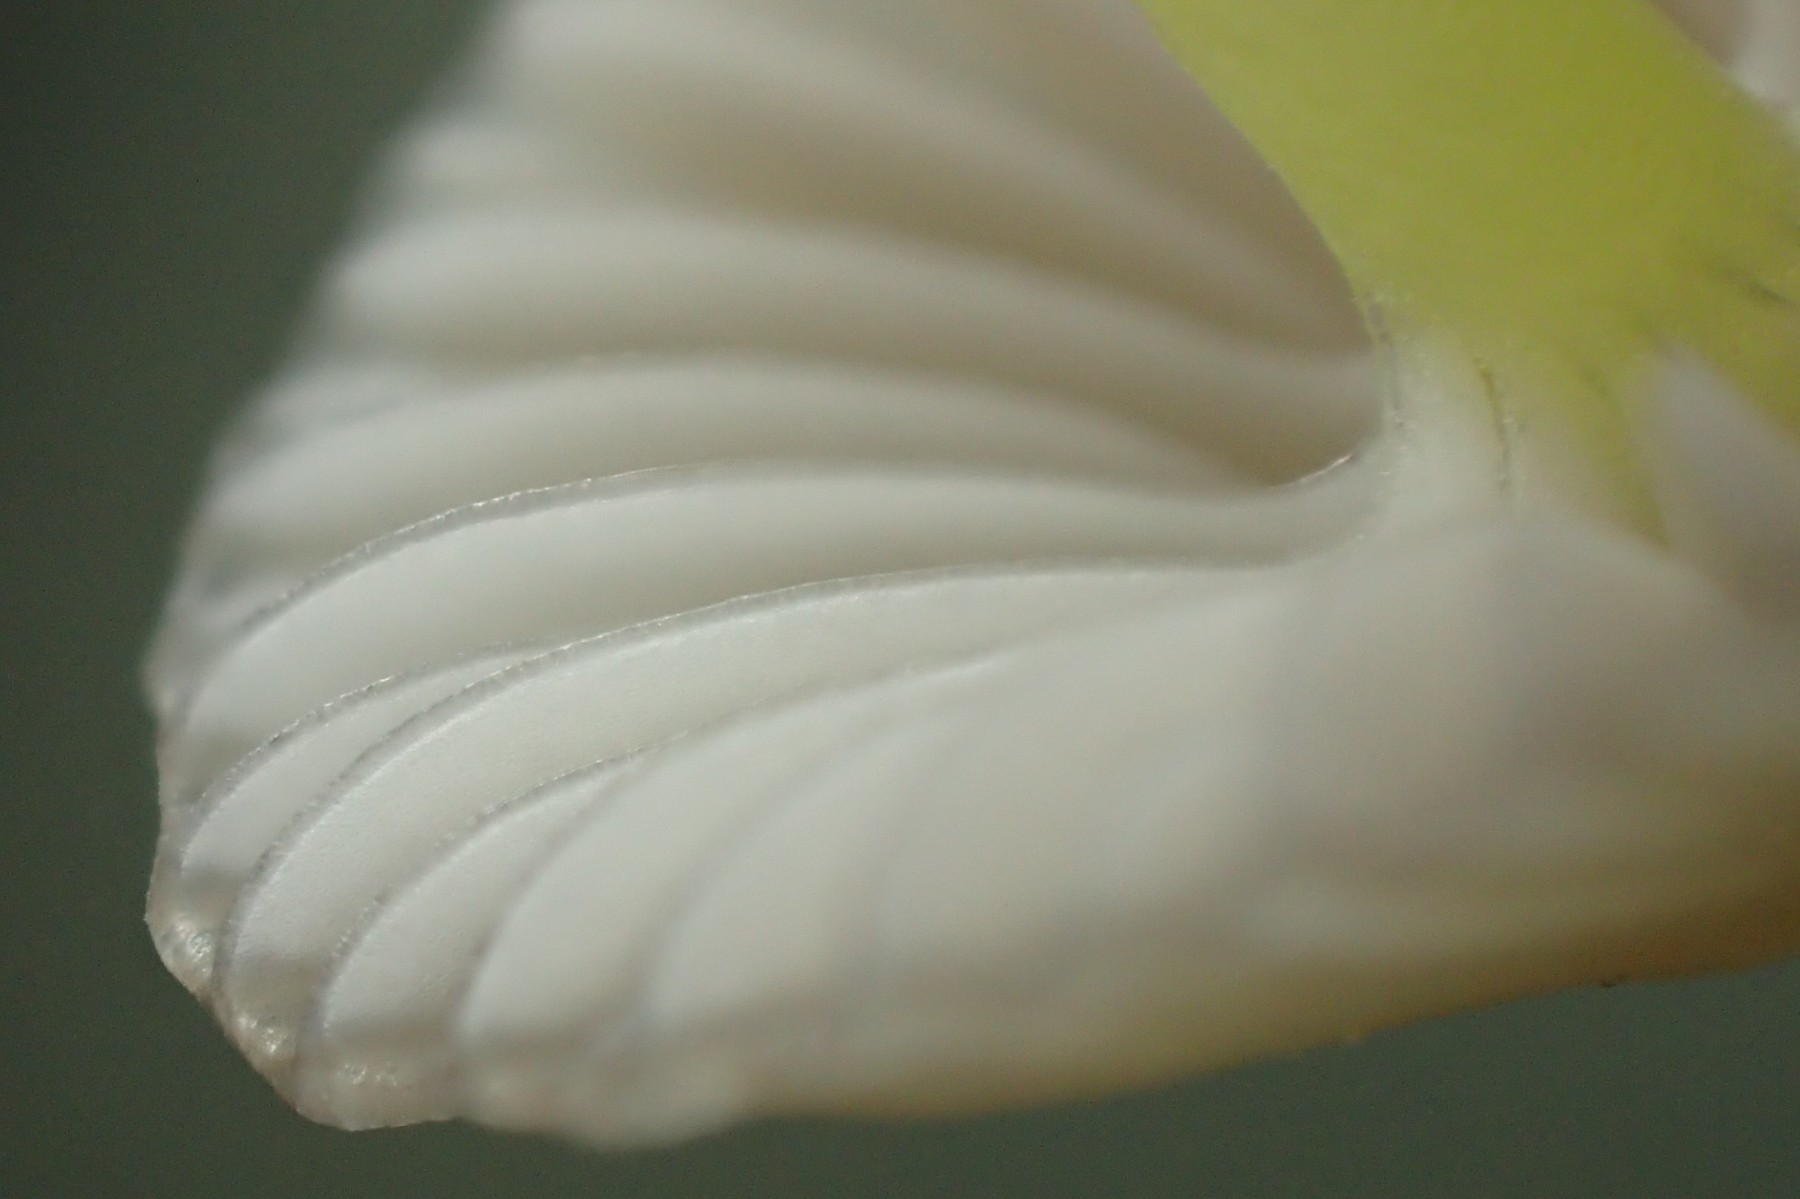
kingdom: Fungi
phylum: Basidiomycota
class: Agaricomycetes
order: Agaricales
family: Mycenaceae
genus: Mycena
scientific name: Mycena epipterygia
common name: gulstokket huesvamp
